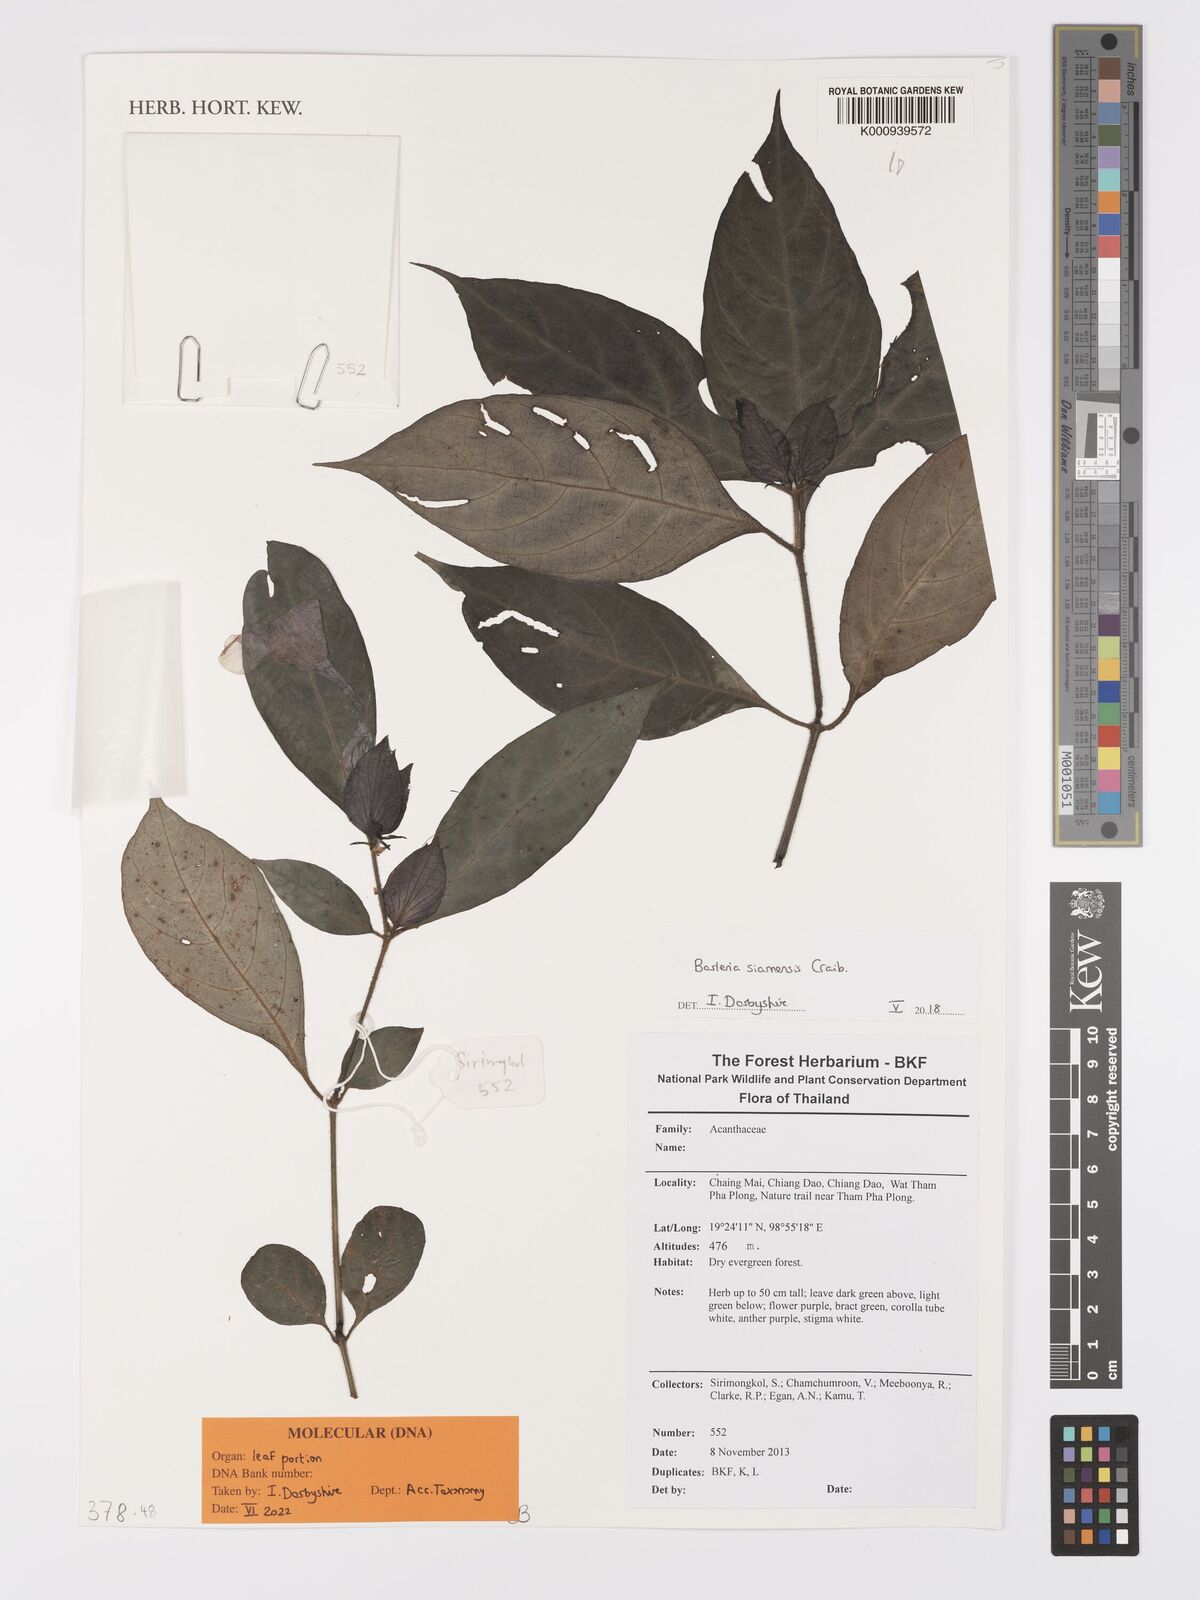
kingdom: Plantae
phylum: Tracheophyta
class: Magnoliopsida
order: Lamiales
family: Acanthaceae
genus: Barleria
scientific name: Barleria siamensis
